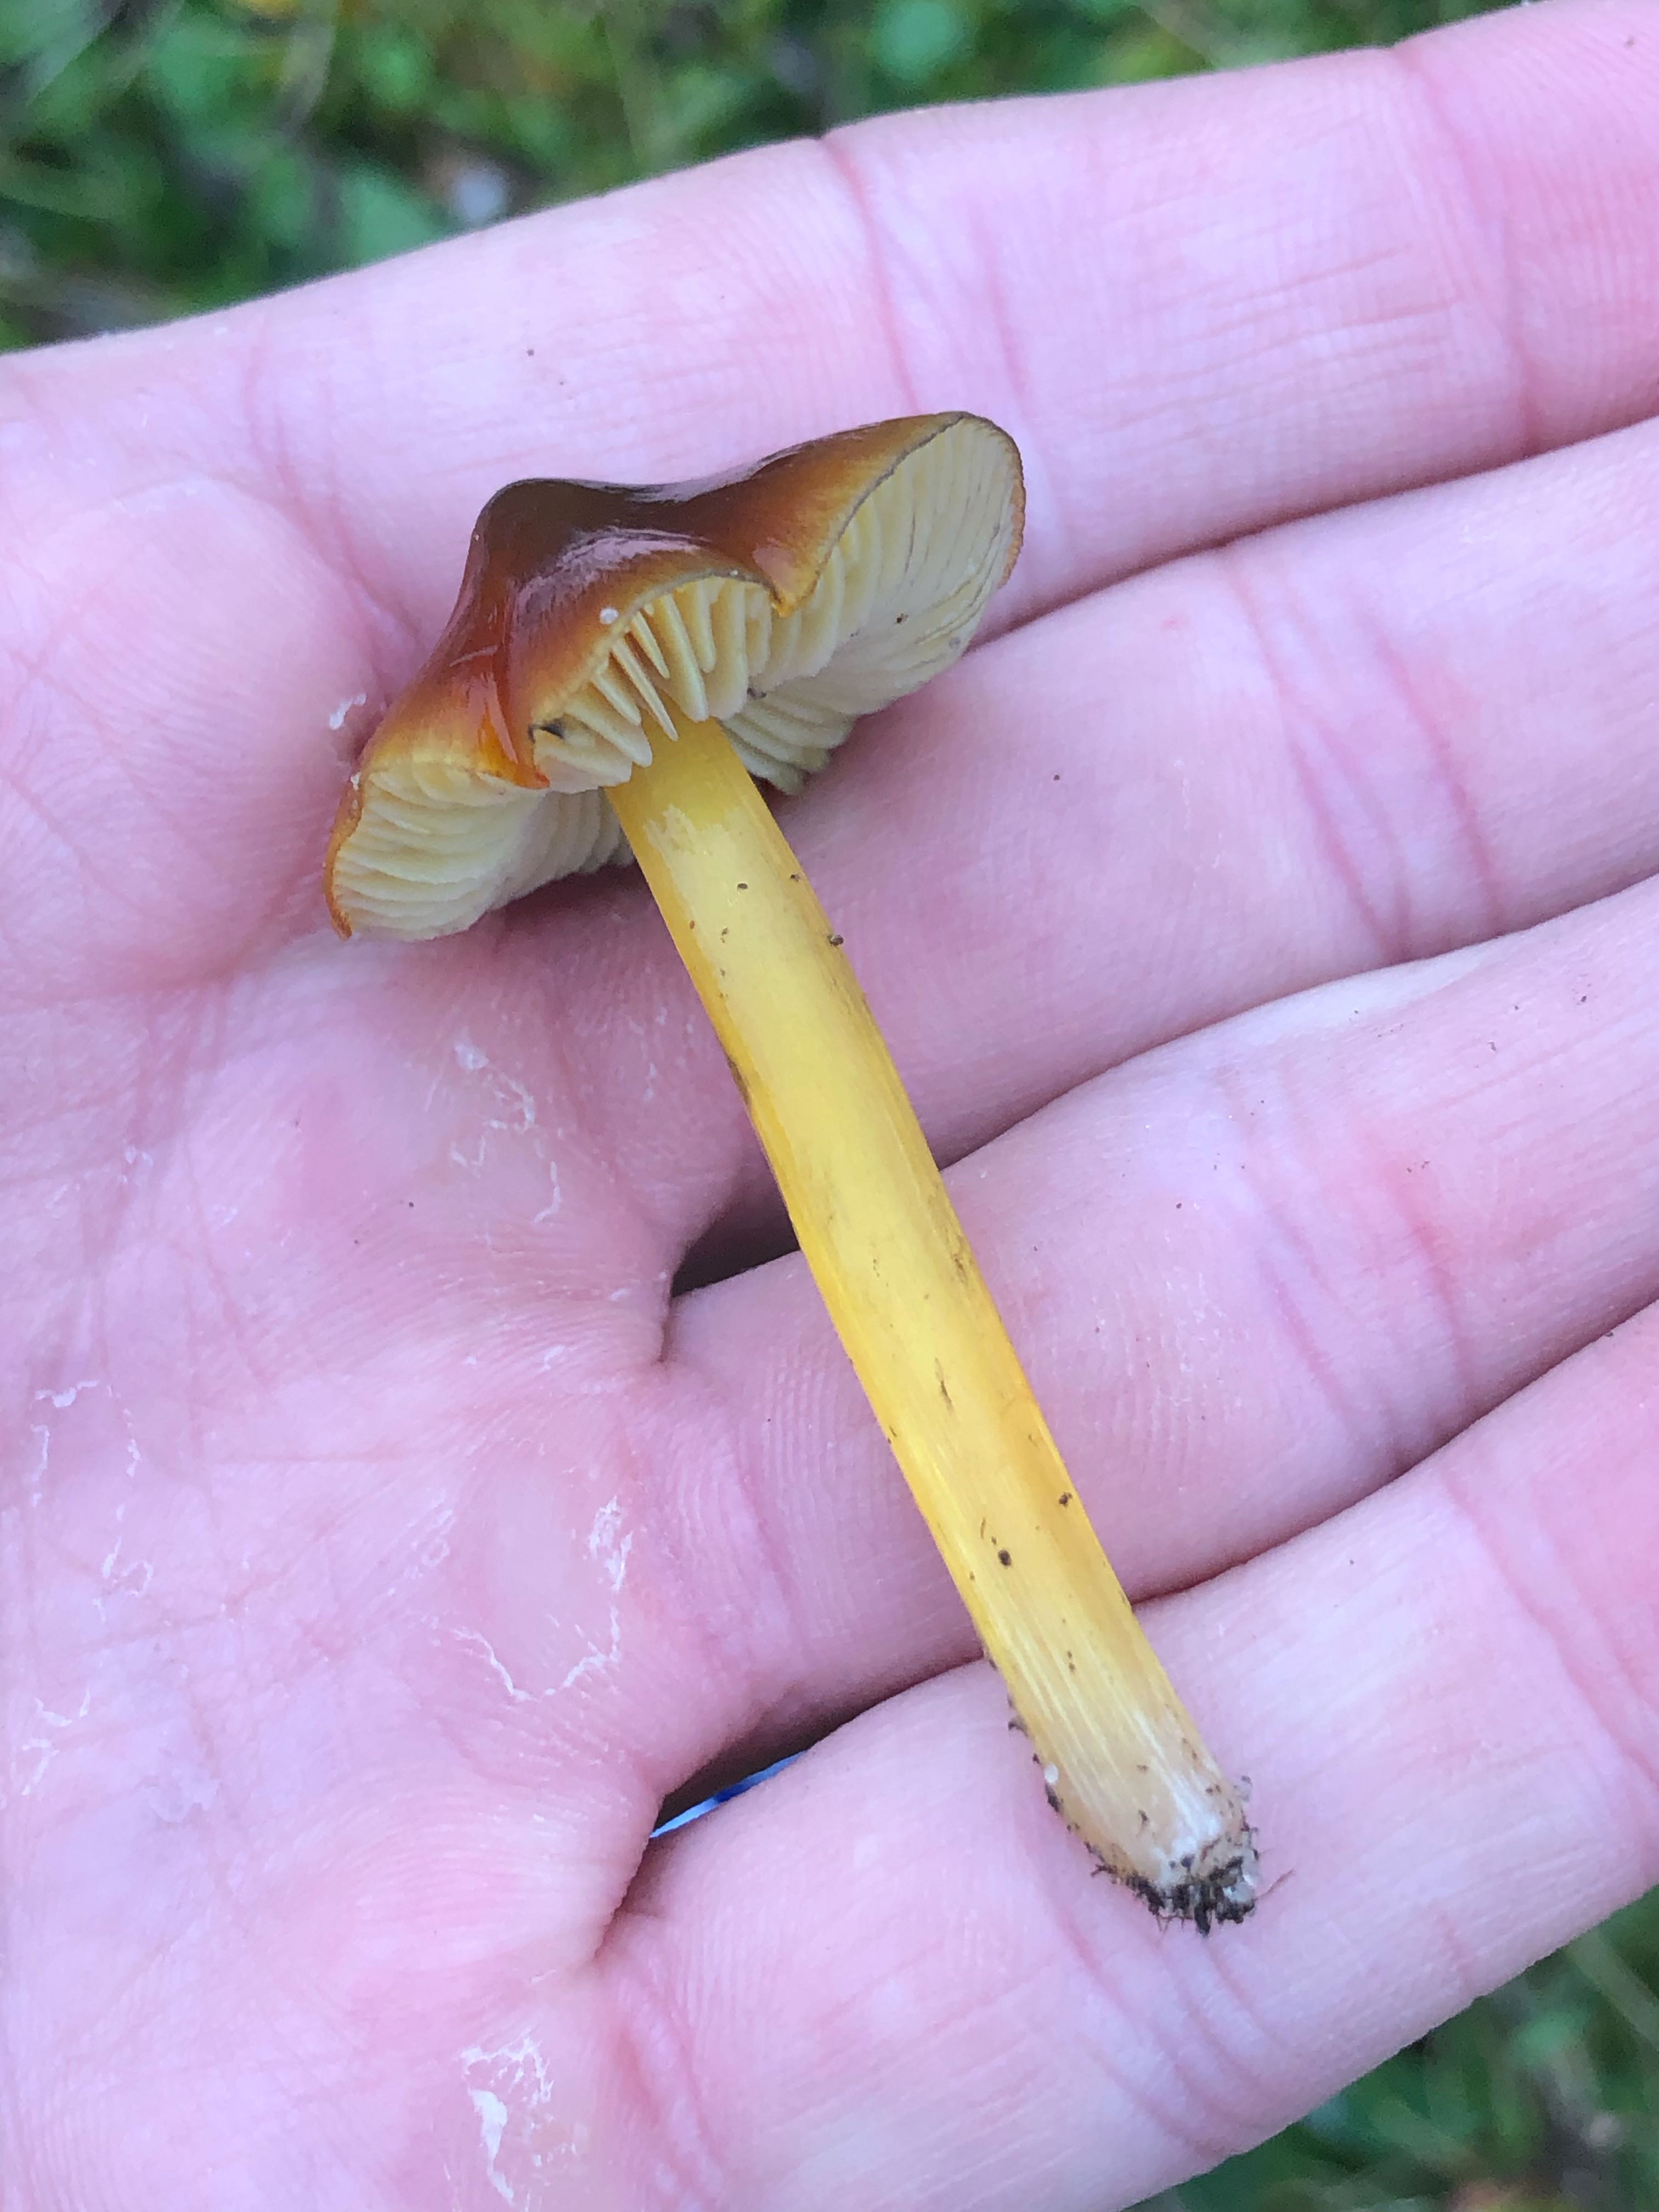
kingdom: Fungi
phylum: Basidiomycota
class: Agaricomycetes
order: Agaricales
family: Hygrophoraceae
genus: Hygrocybe
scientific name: Hygrocybe conica
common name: kegle-vokshat
